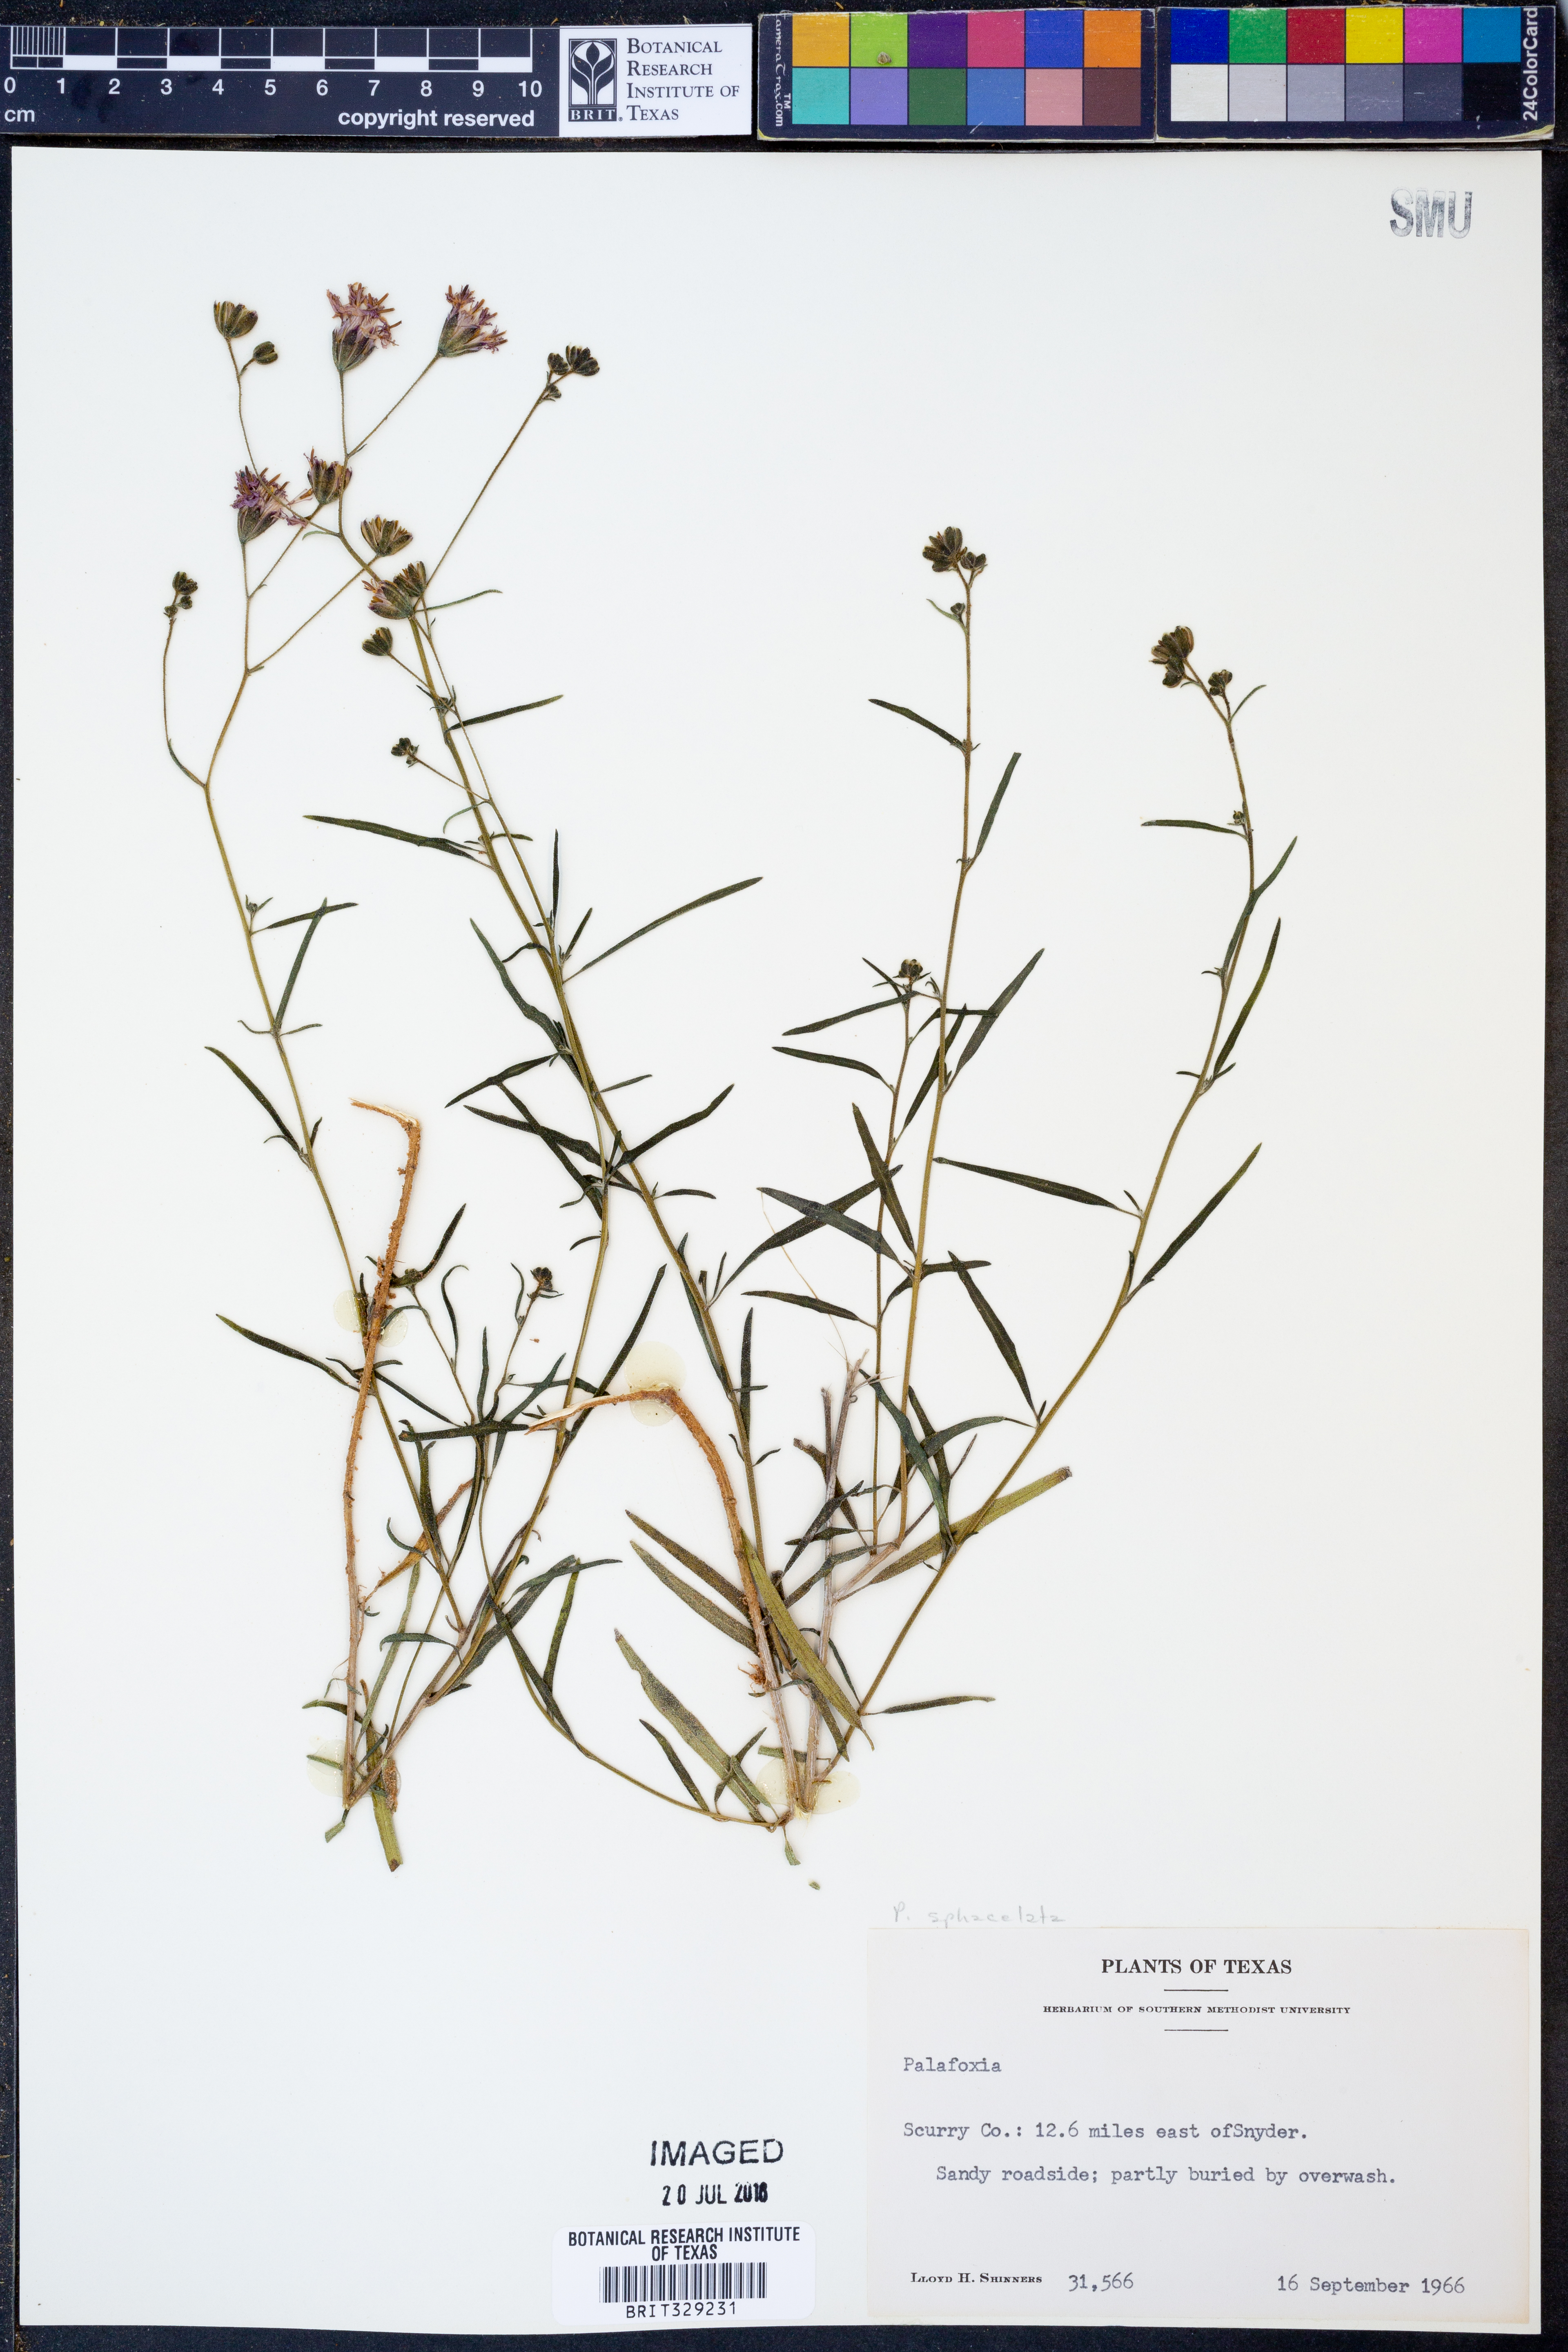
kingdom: Plantae
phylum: Tracheophyta
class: Magnoliopsida
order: Asterales
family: Asteraceae
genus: Palafoxia
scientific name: Palafoxia sphacelata
